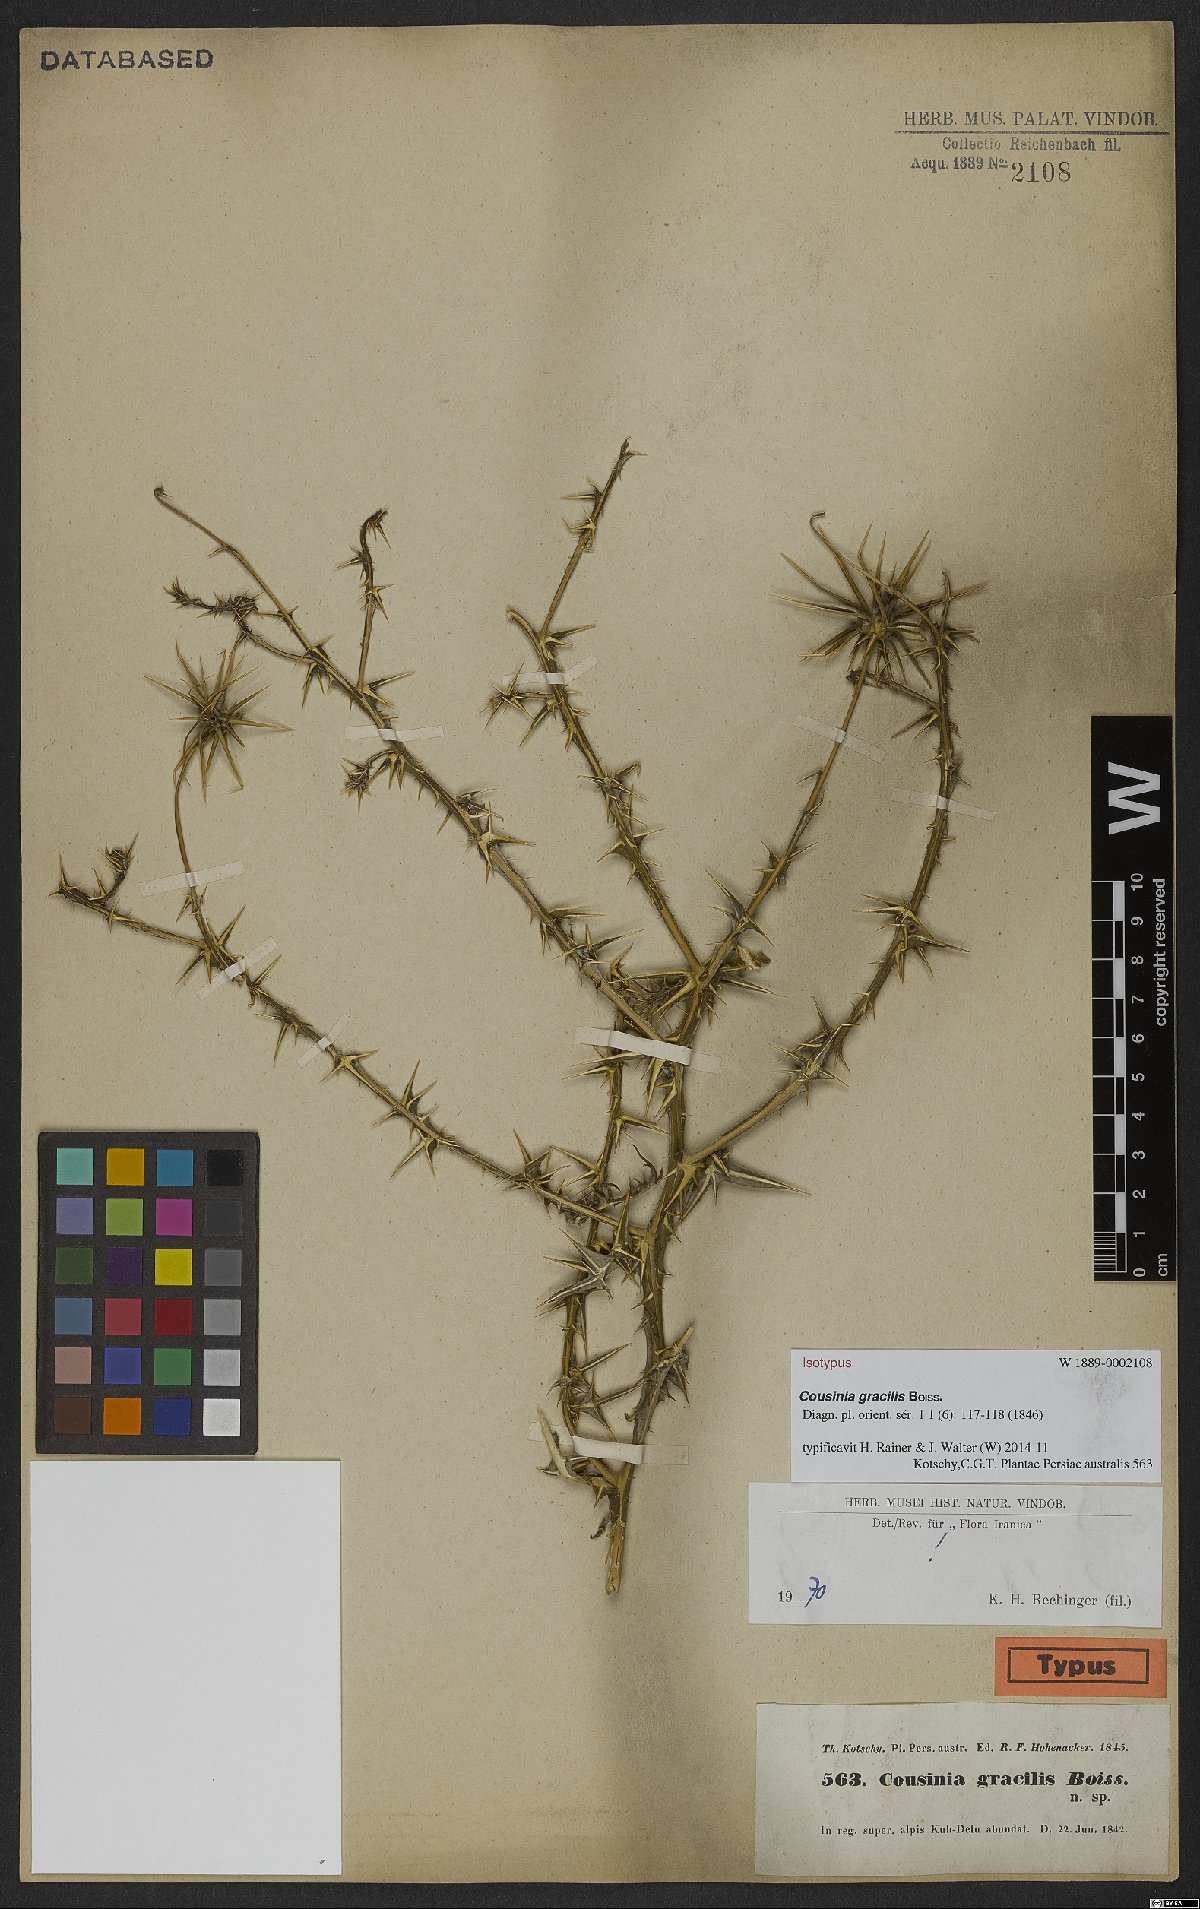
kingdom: Plantae
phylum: Tracheophyta
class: Magnoliopsida
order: Asterales
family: Asteraceae
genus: Cousinia
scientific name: Cousinia gracilis
